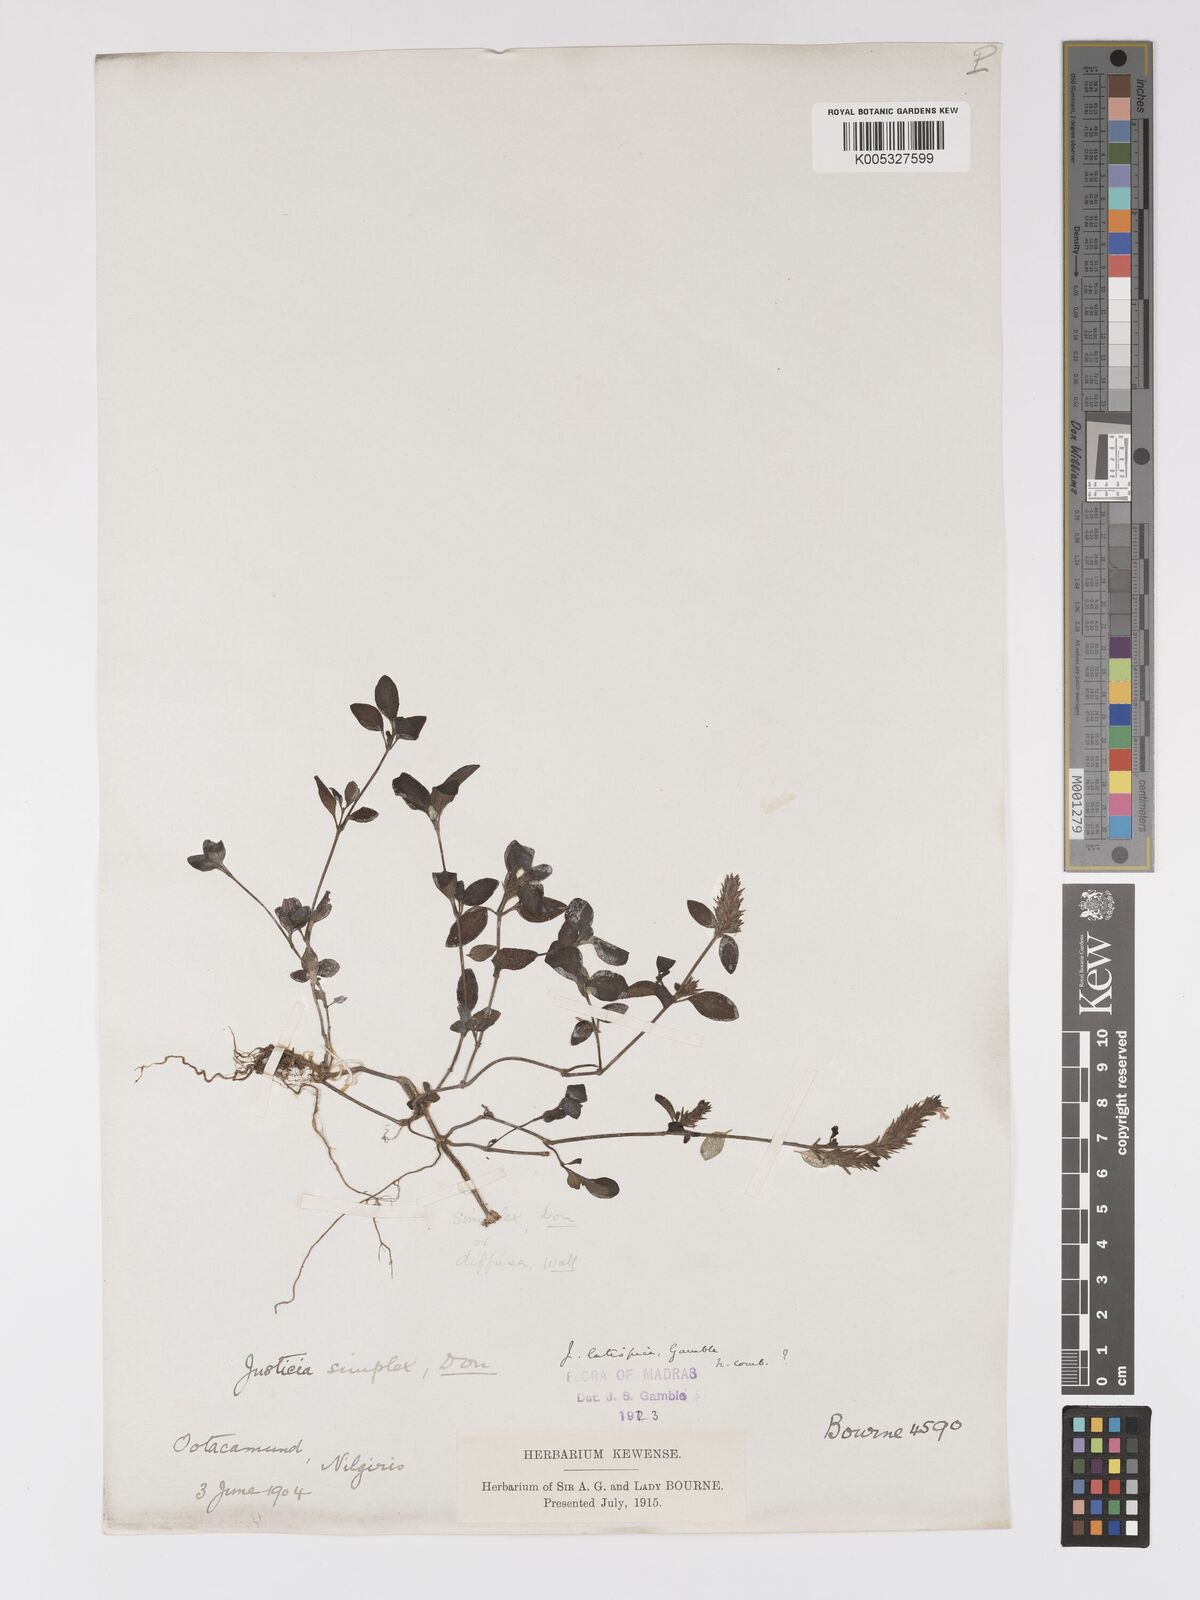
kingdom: Plantae
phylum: Tracheophyta
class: Magnoliopsida
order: Lamiales
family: Acanthaceae
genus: Rostellularia
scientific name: Rostellularia latispica
